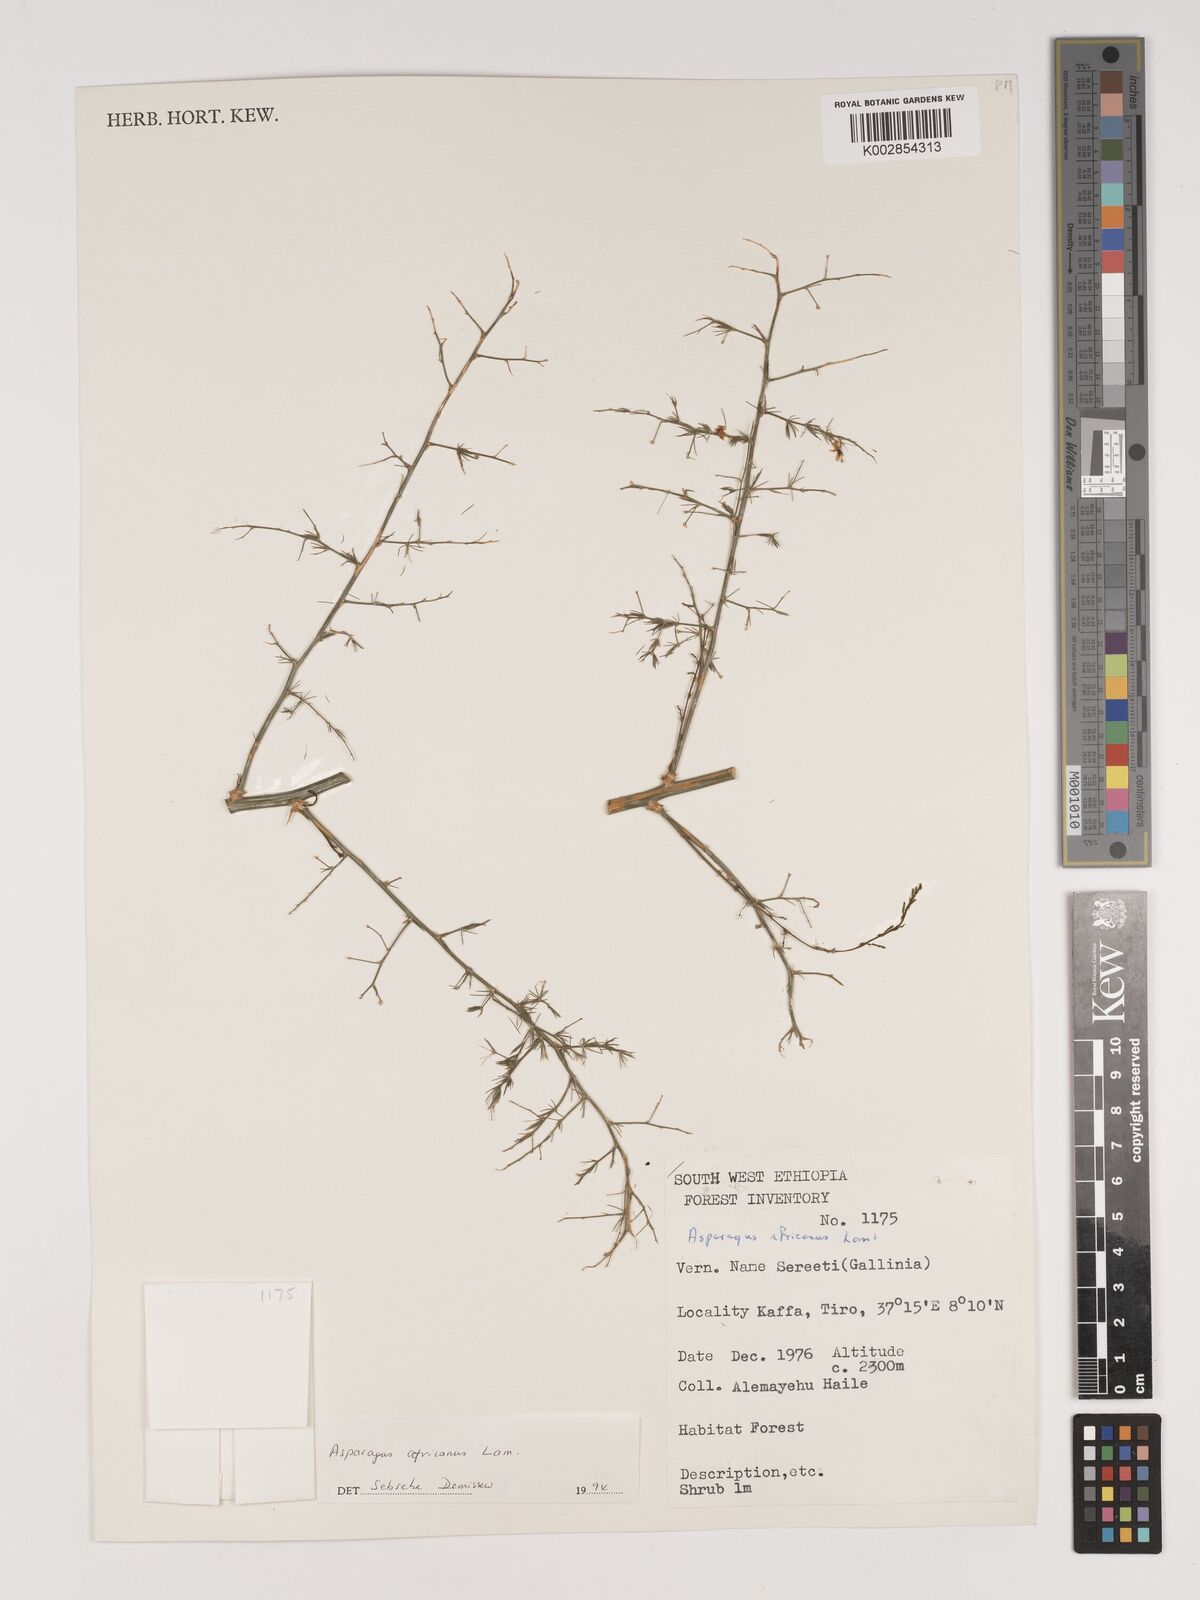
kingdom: Plantae
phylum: Tracheophyta
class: Liliopsida
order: Asparagales
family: Asparagaceae
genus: Asparagus
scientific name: Asparagus africanus
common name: Asparagus-fern
